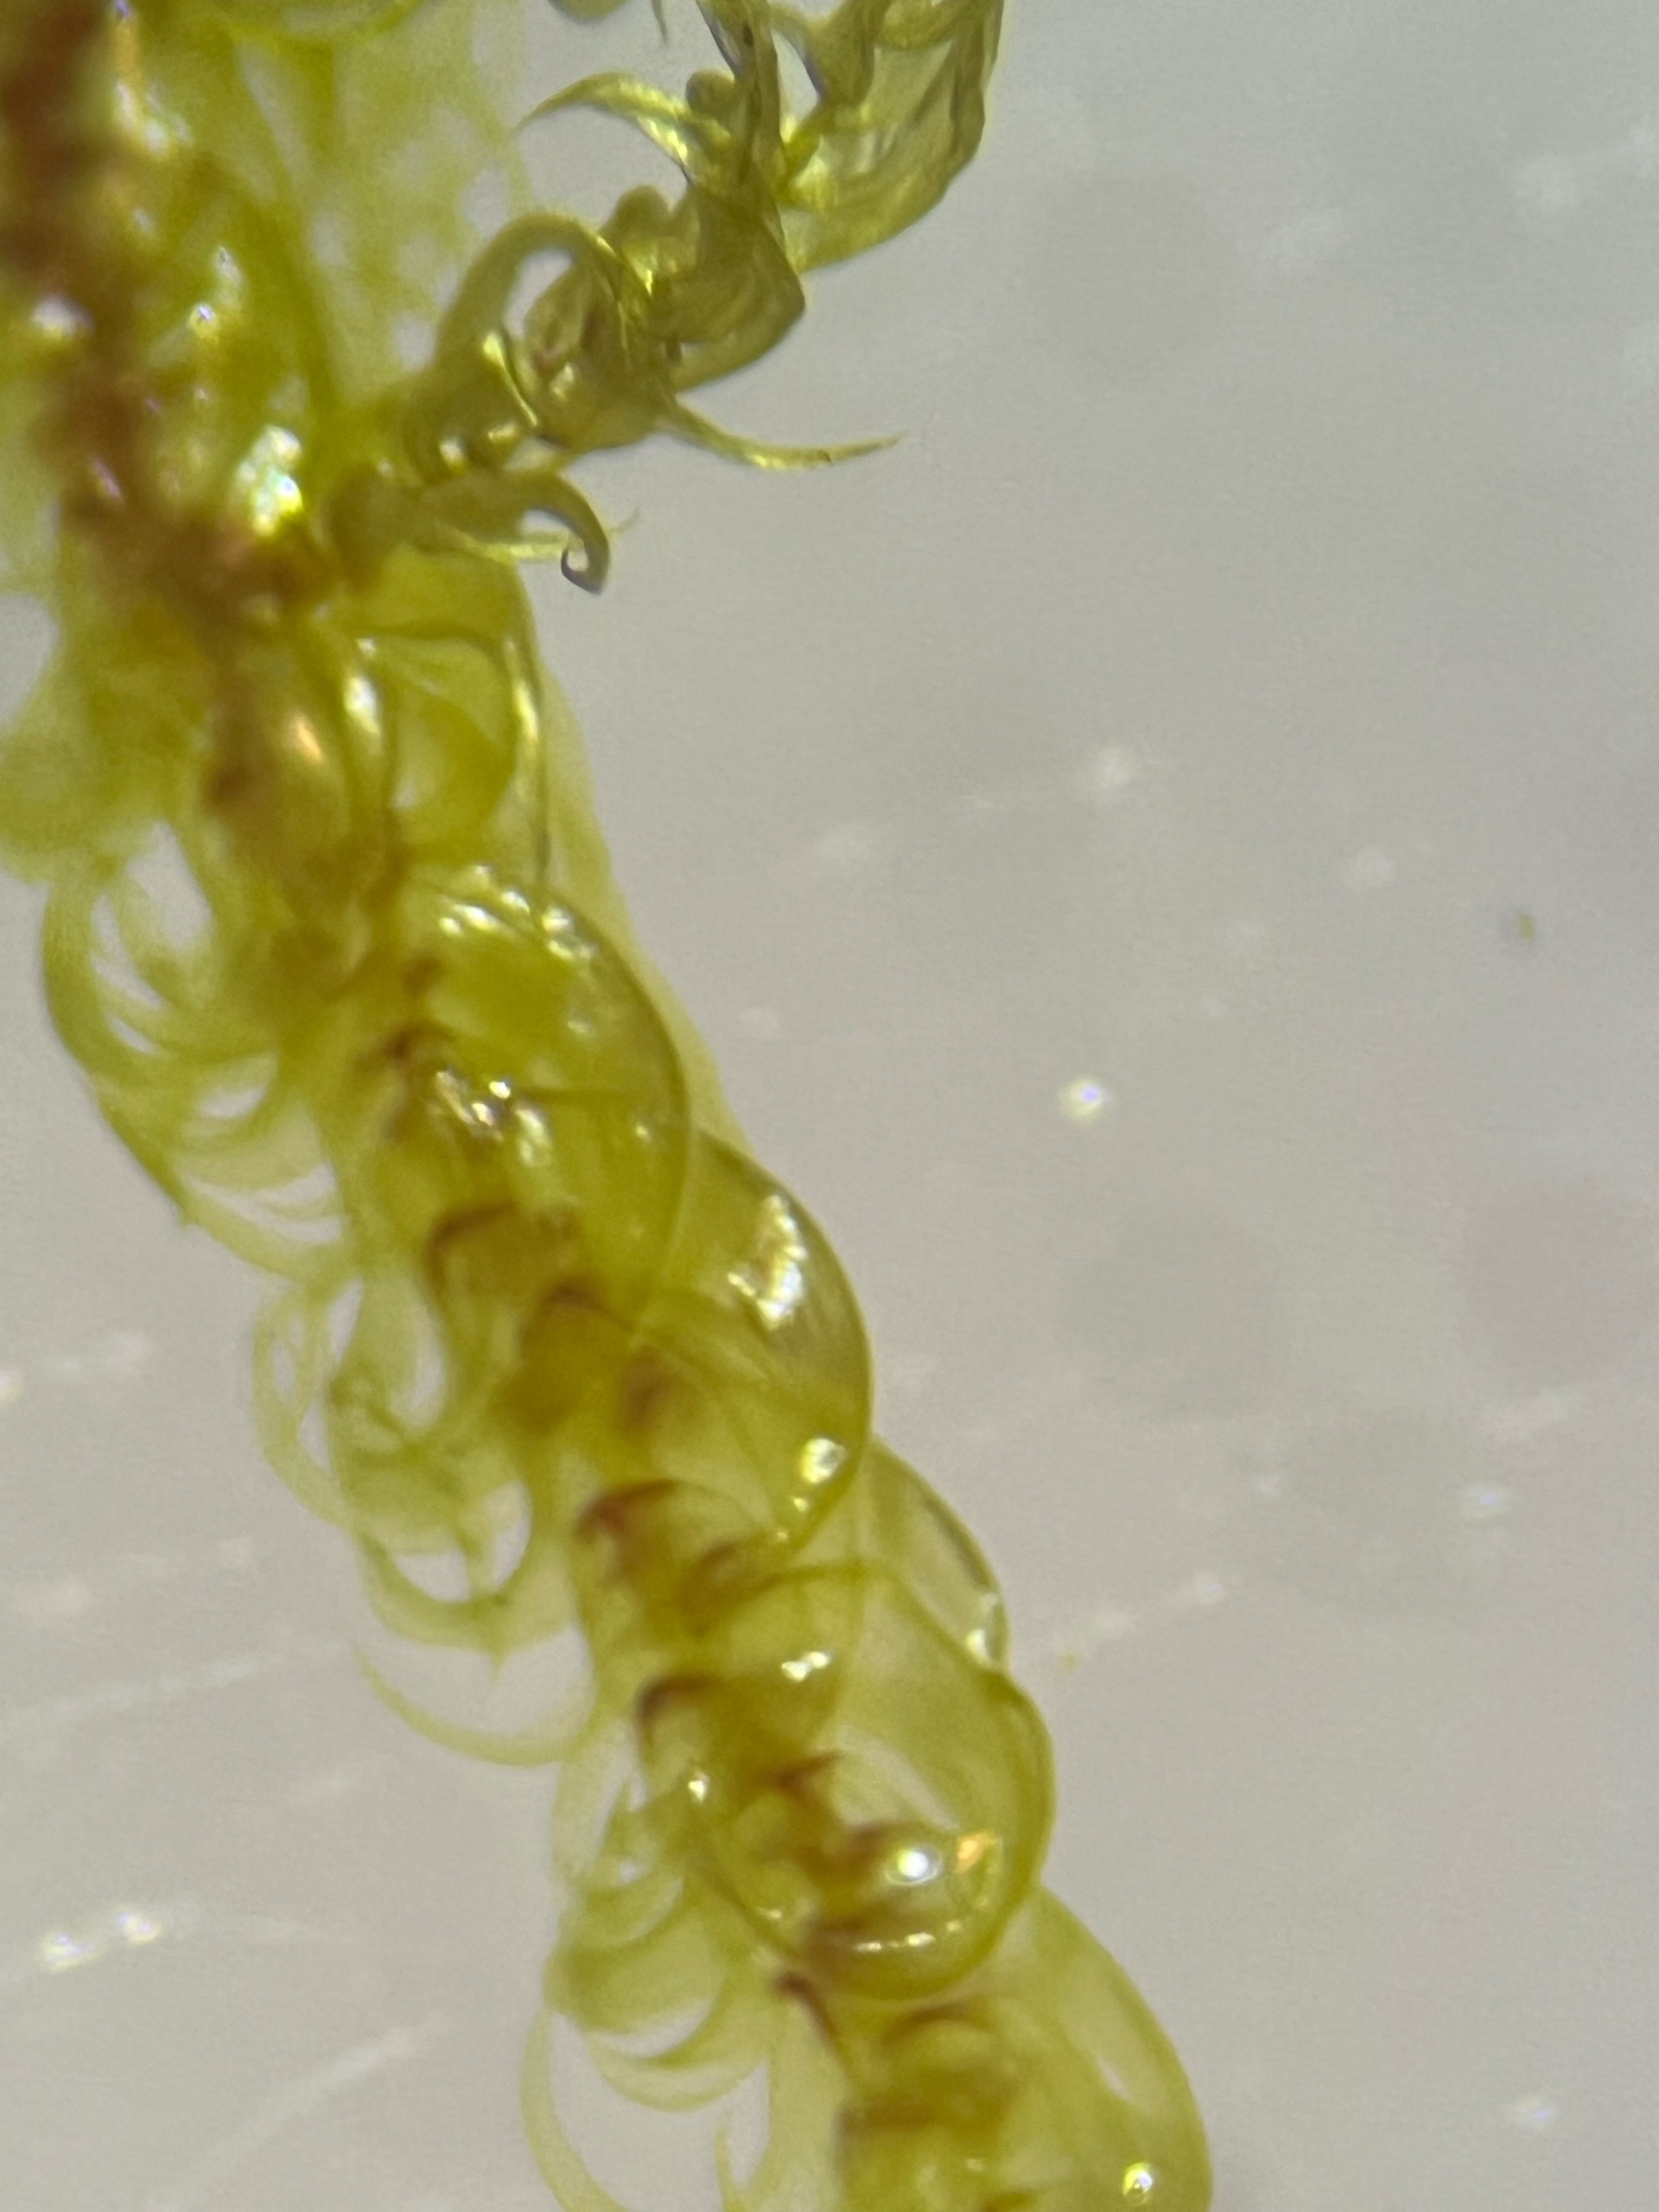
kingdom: Plantae
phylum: Bryophyta
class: Bryopsida
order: Hypnales
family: Scorpidiaceae
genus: Hamatocaulis
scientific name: Hamatocaulis vernicosus
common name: Blank seglmos
